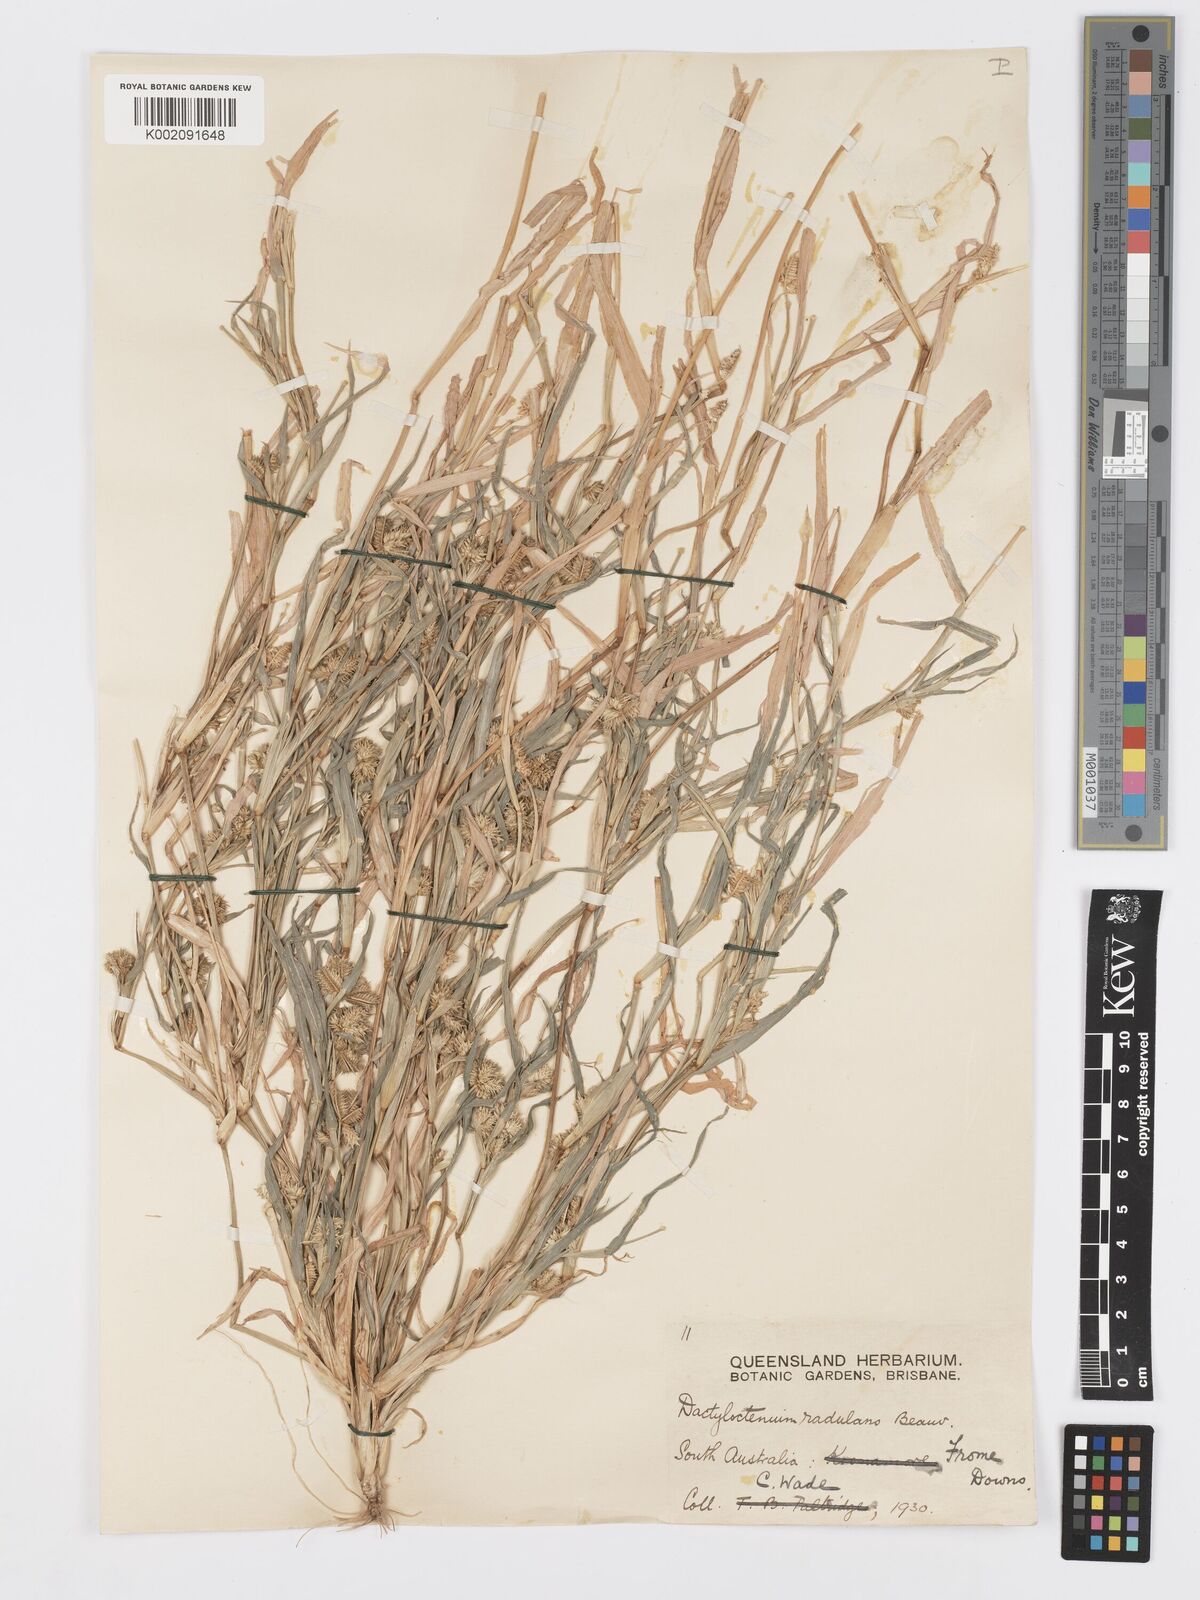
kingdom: Plantae
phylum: Tracheophyta
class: Liliopsida
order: Poales
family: Poaceae
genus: Dactyloctenium
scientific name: Dactyloctenium radulans
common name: Button-grass
